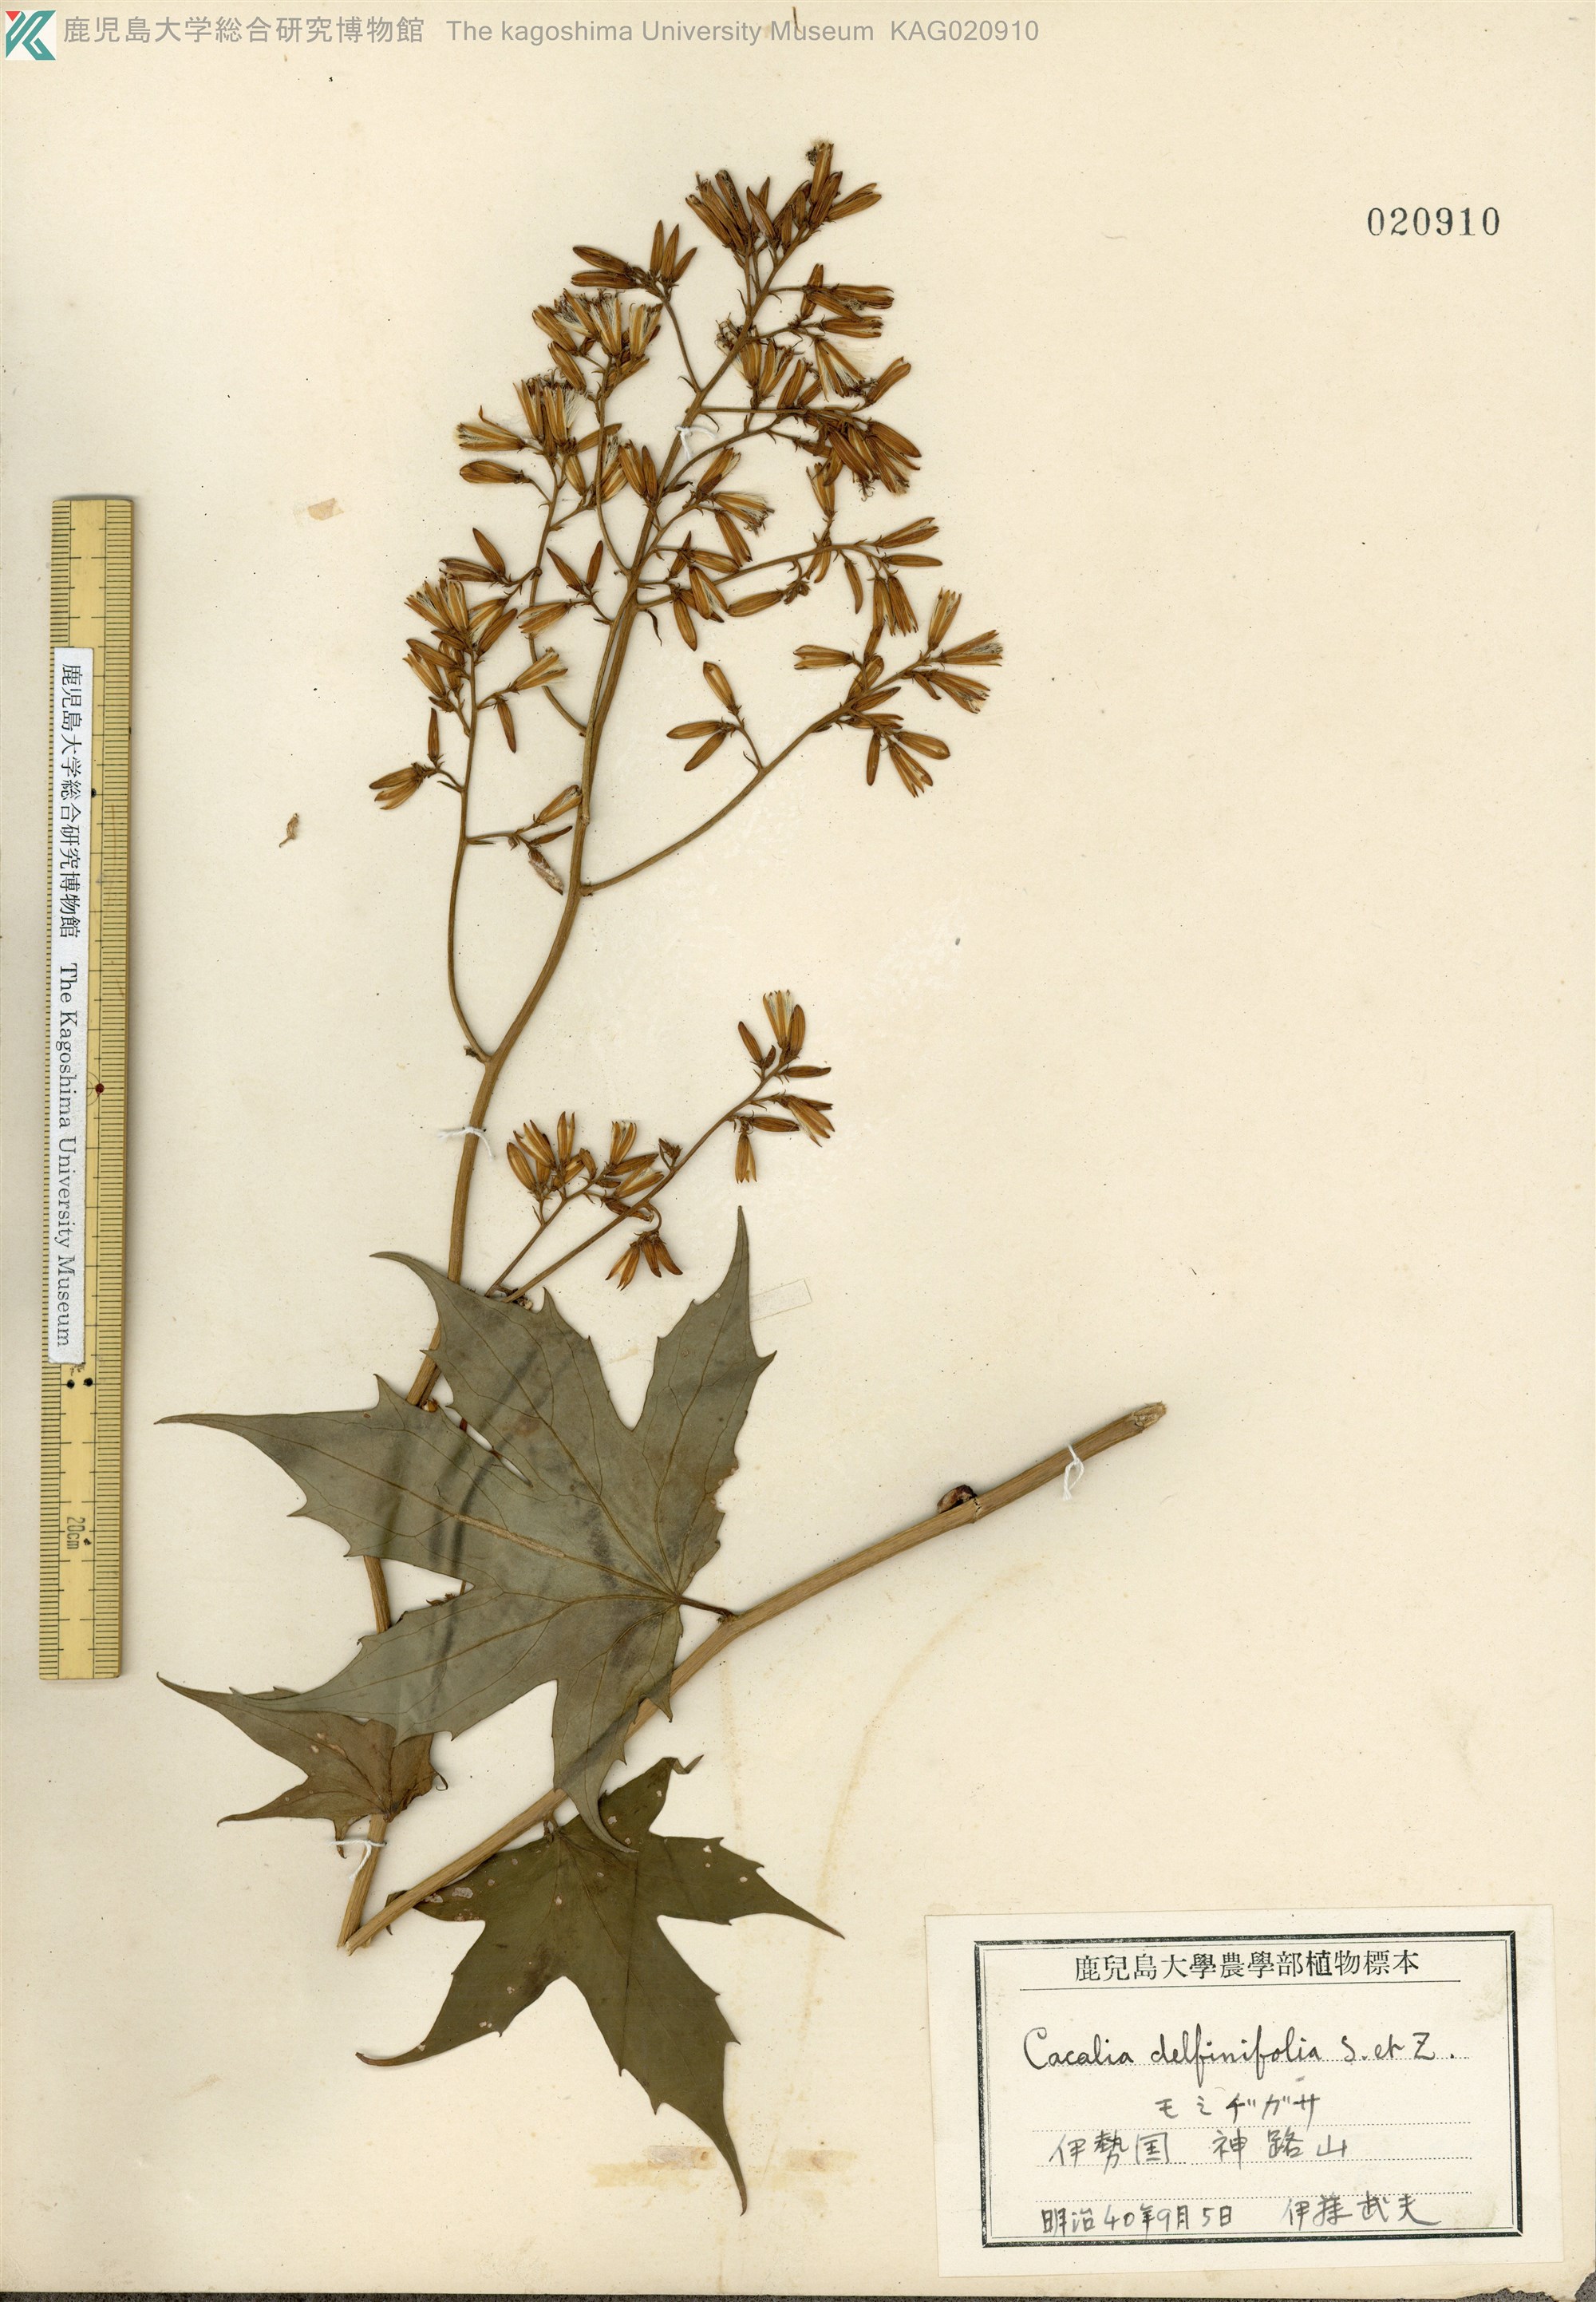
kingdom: Plantae
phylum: Tracheophyta
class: Magnoliopsida
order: Asterales
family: Asteraceae
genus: Japonicalia
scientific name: Japonicalia delphiniifolia
